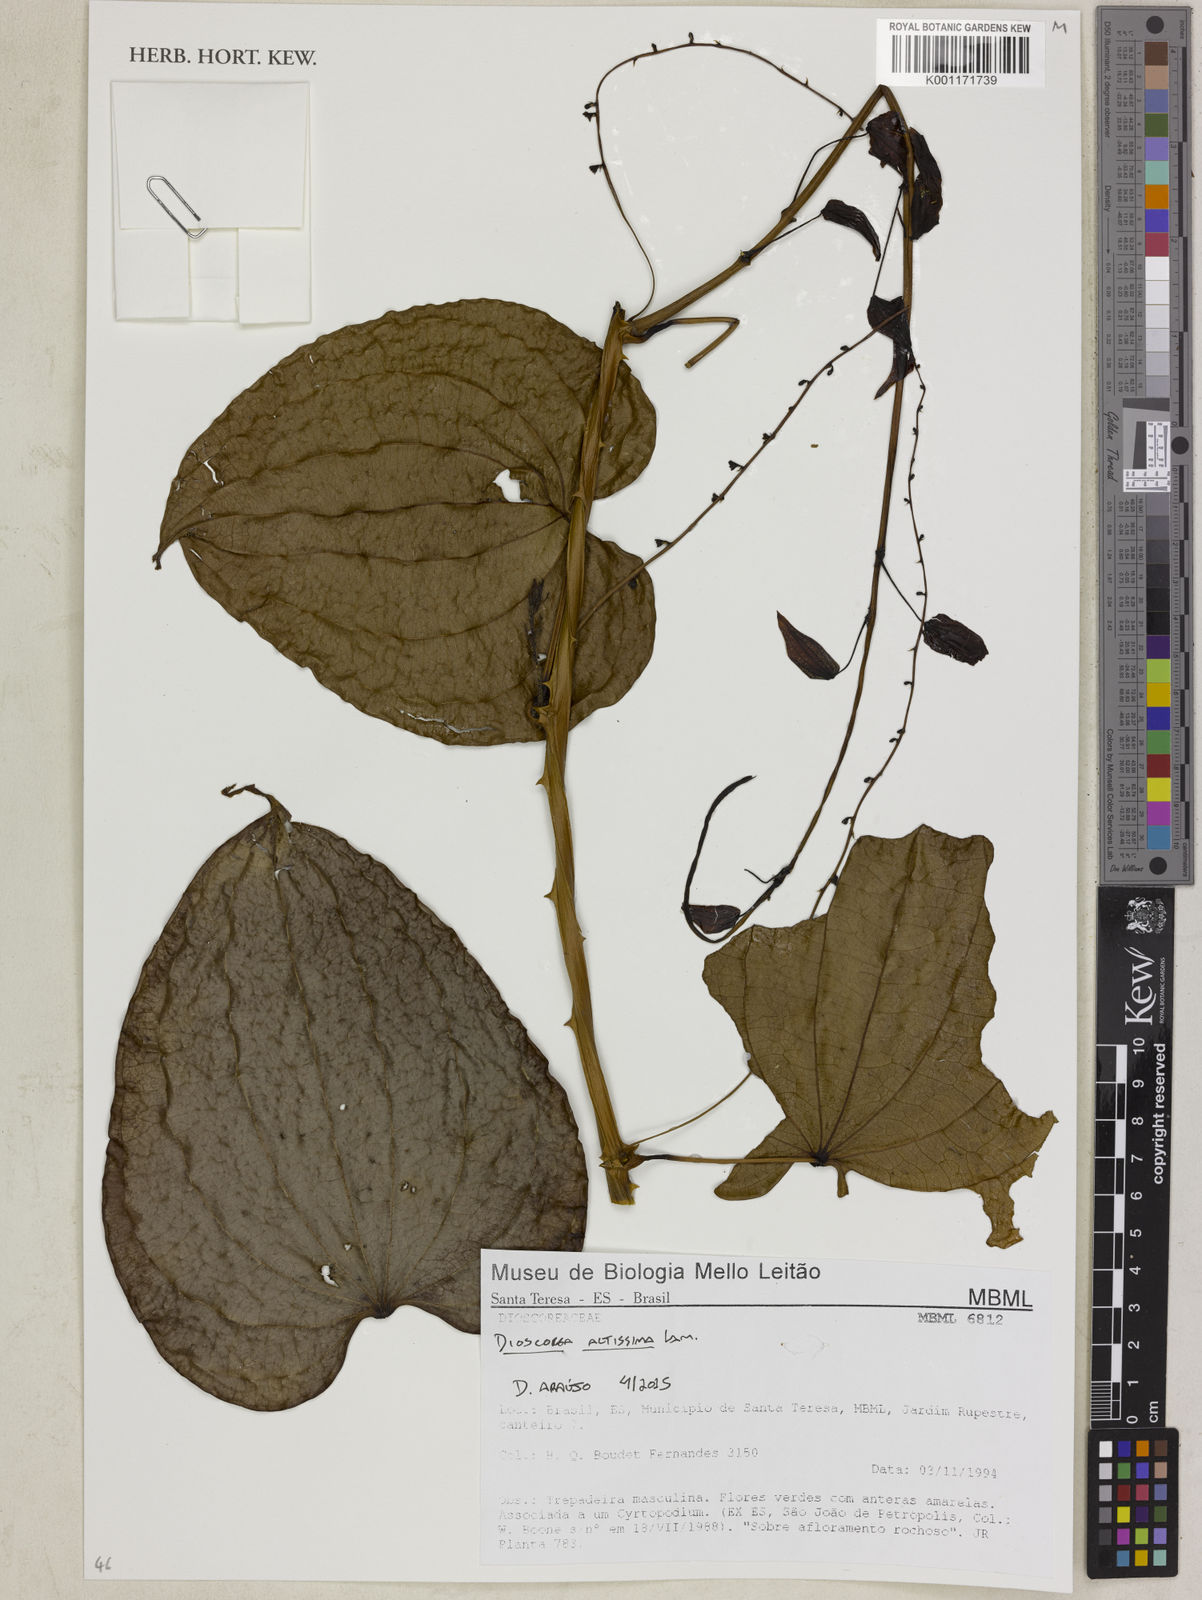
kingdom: Plantae
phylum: Tracheophyta
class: Liliopsida
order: Dioscoreales
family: Dioscoreaceae
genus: Dioscorea
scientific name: Dioscorea chondrocarpa
